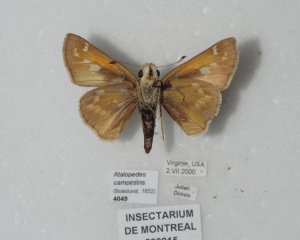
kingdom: Animalia
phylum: Arthropoda
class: Insecta
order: Lepidoptera
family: Hesperiidae
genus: Atalopedes
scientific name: Atalopedes campestris
